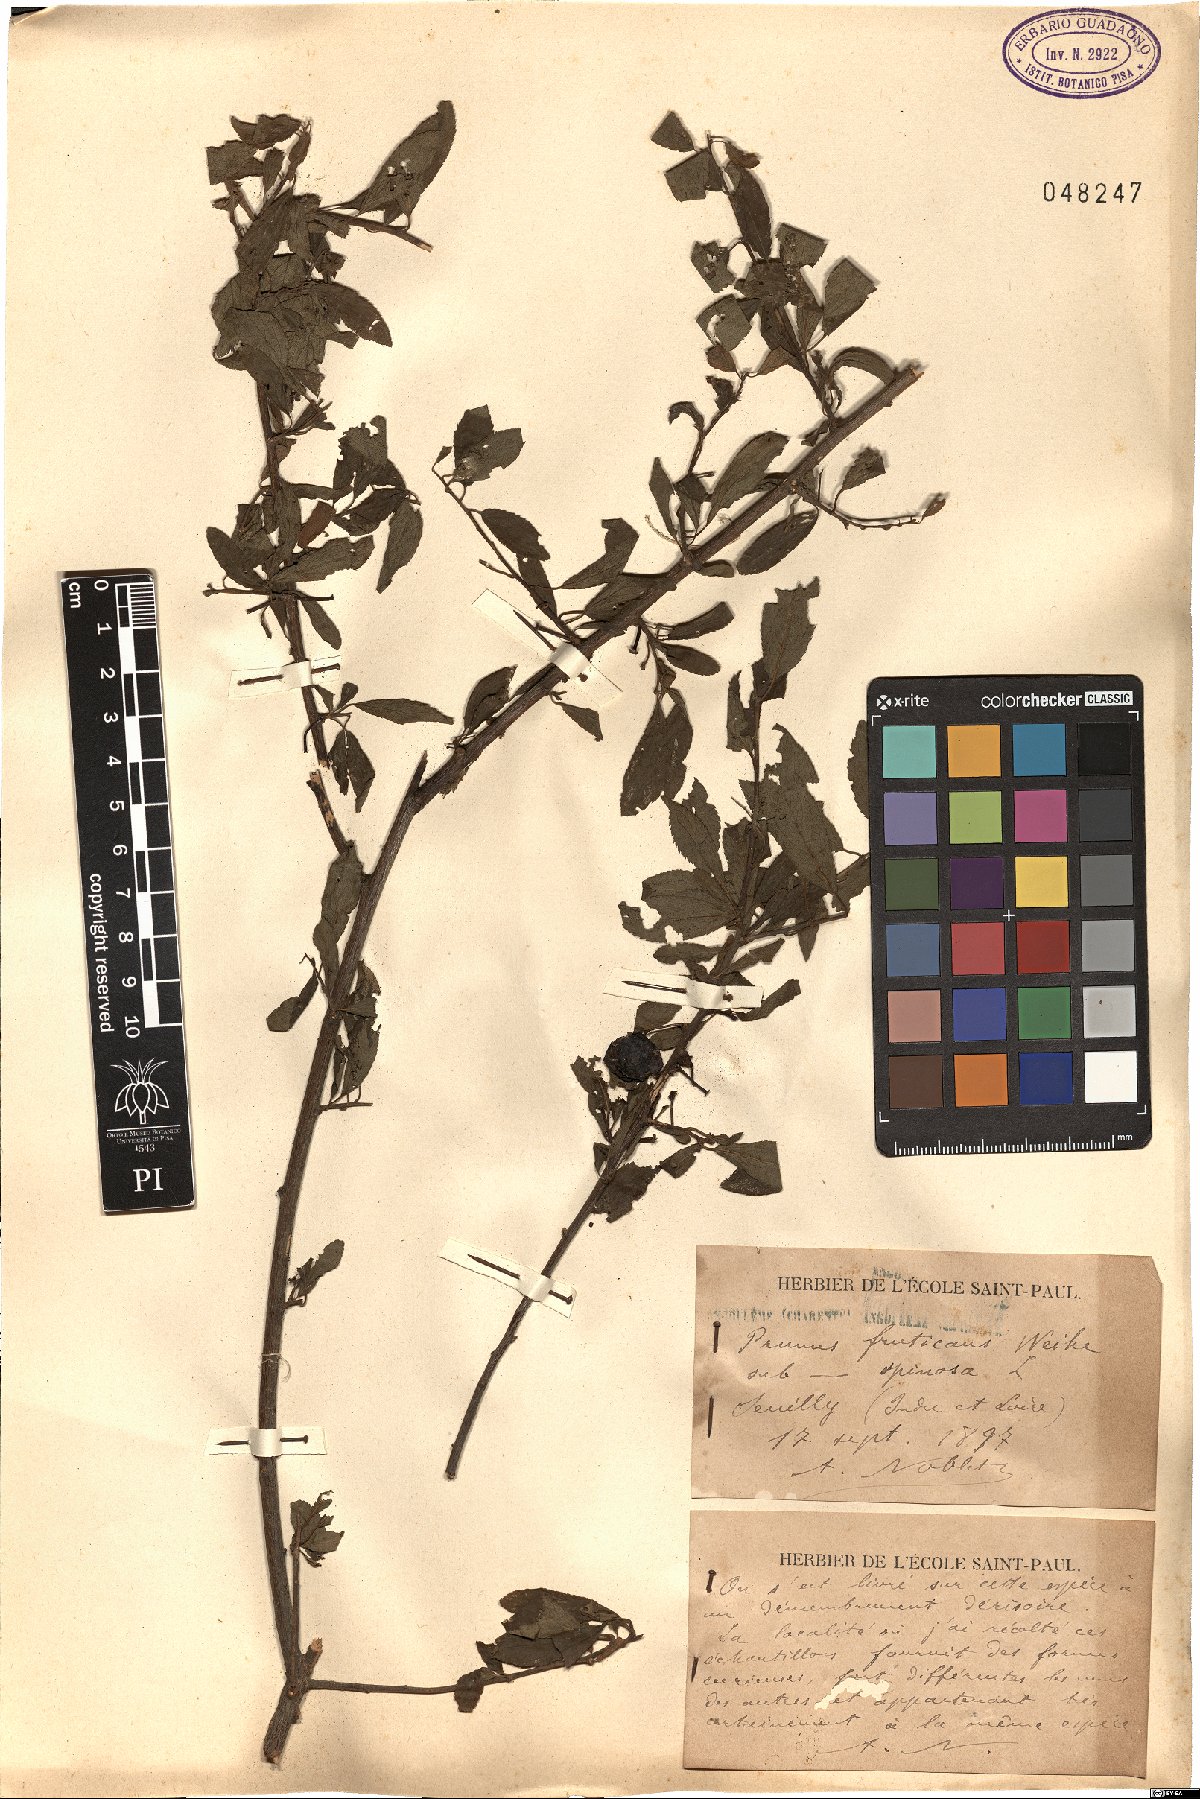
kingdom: Plantae
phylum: Tracheophyta
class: Magnoliopsida
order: Rosales
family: Rosaceae
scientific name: Rosaceae
